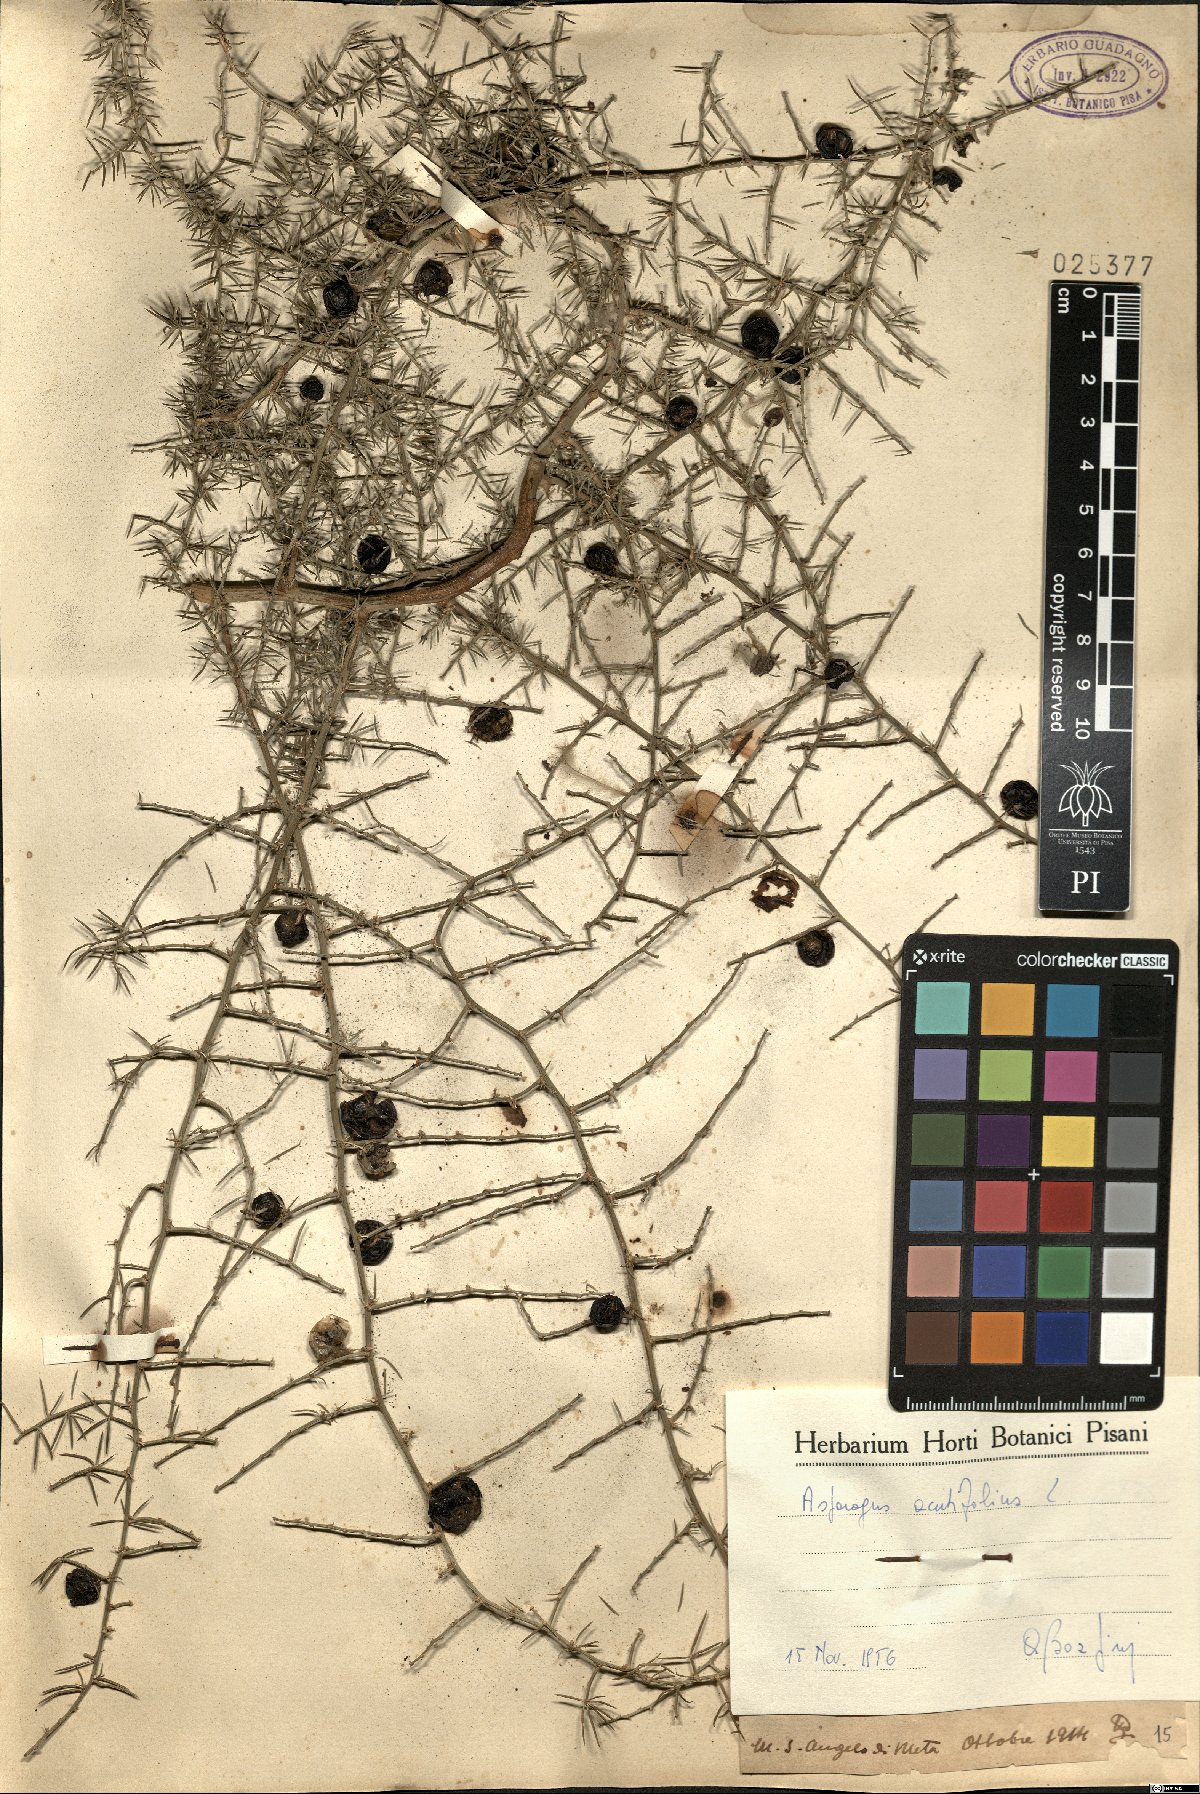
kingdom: Plantae
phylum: Tracheophyta
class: Liliopsida
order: Asparagales
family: Asparagaceae
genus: Asparagus
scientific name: Asparagus acutifolius
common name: Wild asparagus
